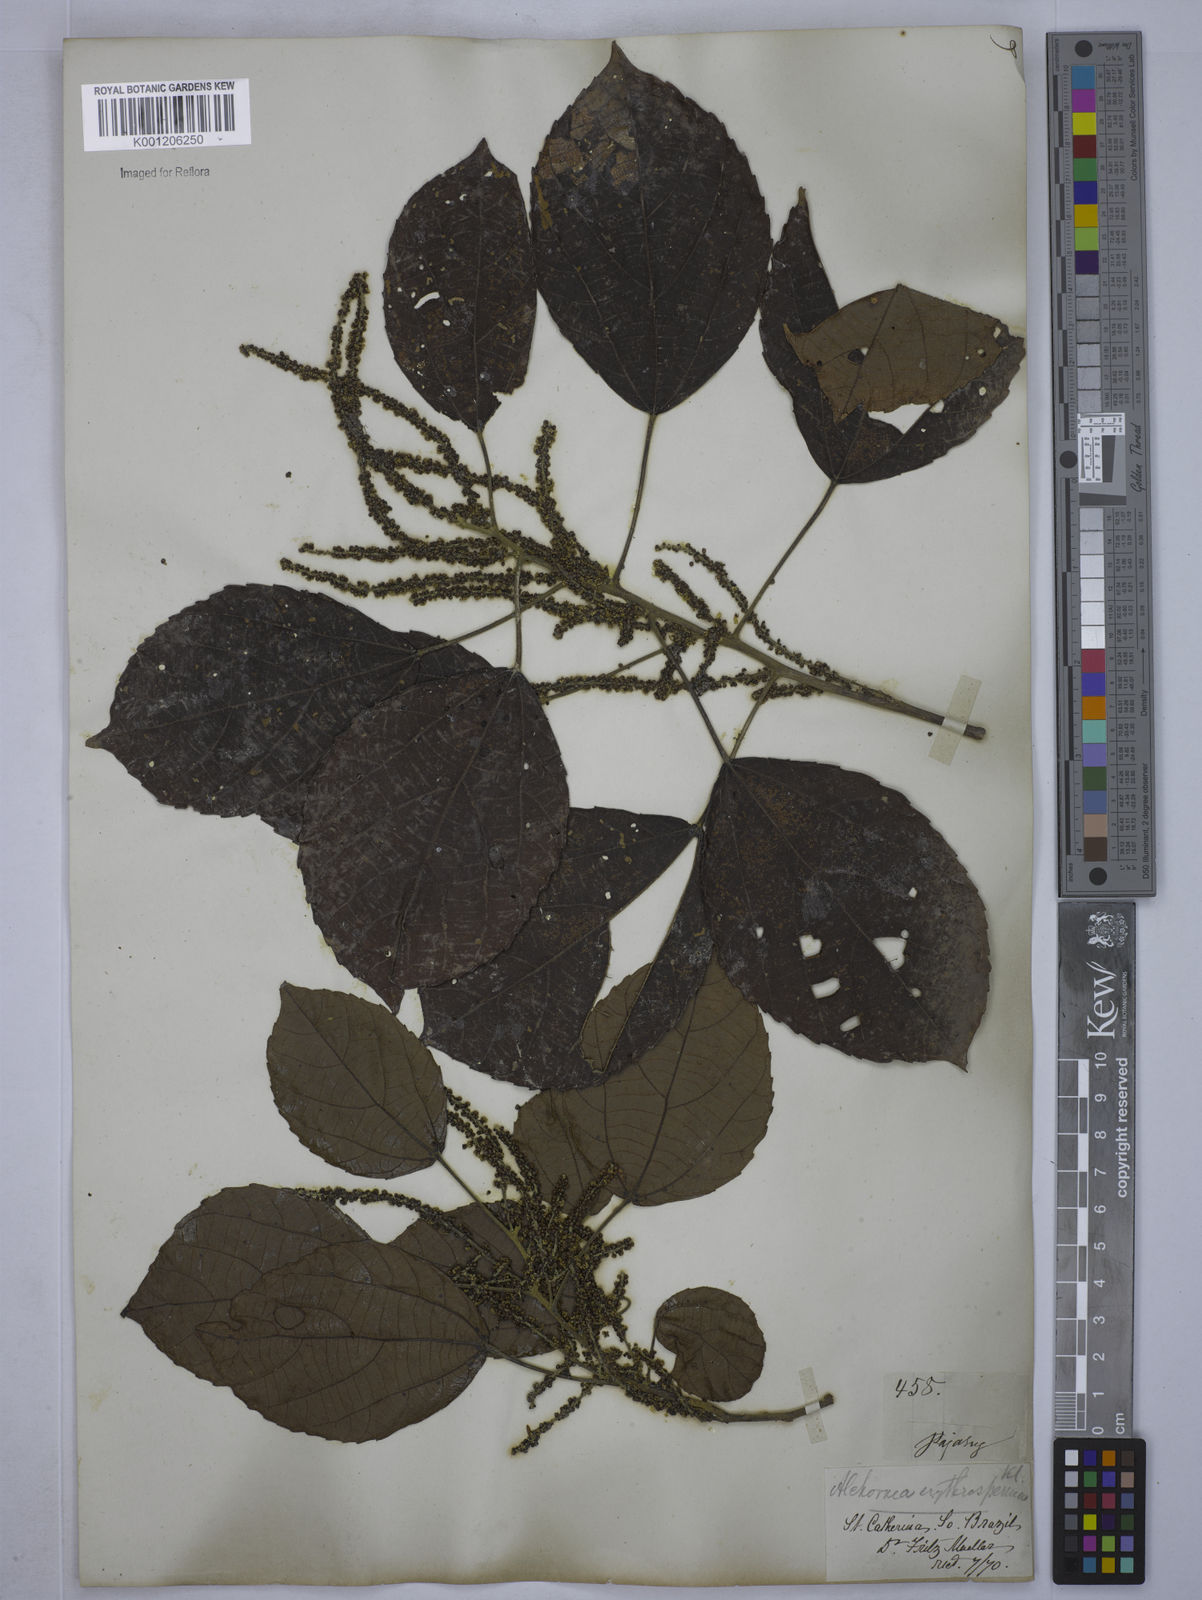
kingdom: Plantae
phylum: Tracheophyta
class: Magnoliopsida
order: Malpighiales
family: Euphorbiaceae
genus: Alchornea
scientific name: Alchornea glandulosa
